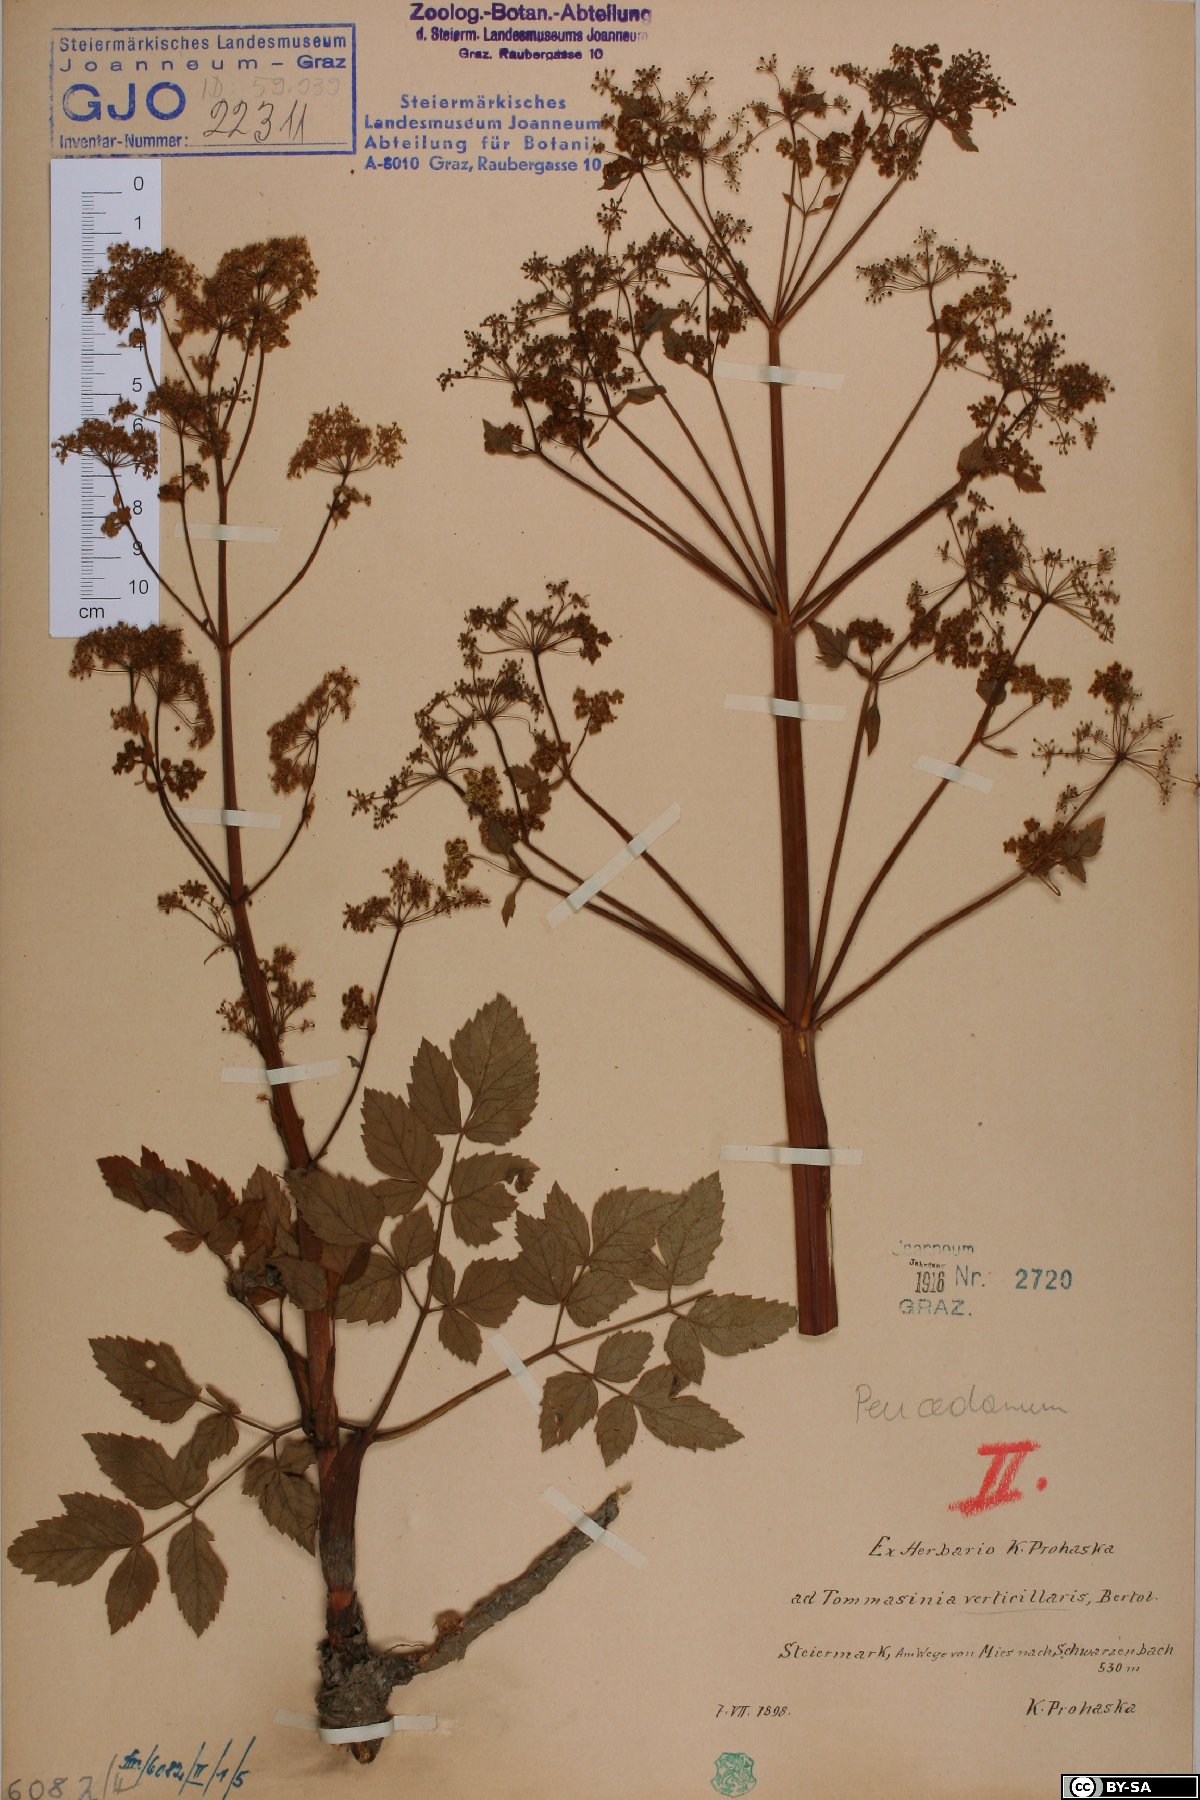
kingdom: Plantae
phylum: Tracheophyta
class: Magnoliopsida
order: Apiales
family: Apiaceae
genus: Tommasinia
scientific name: Tommasinia altissima
